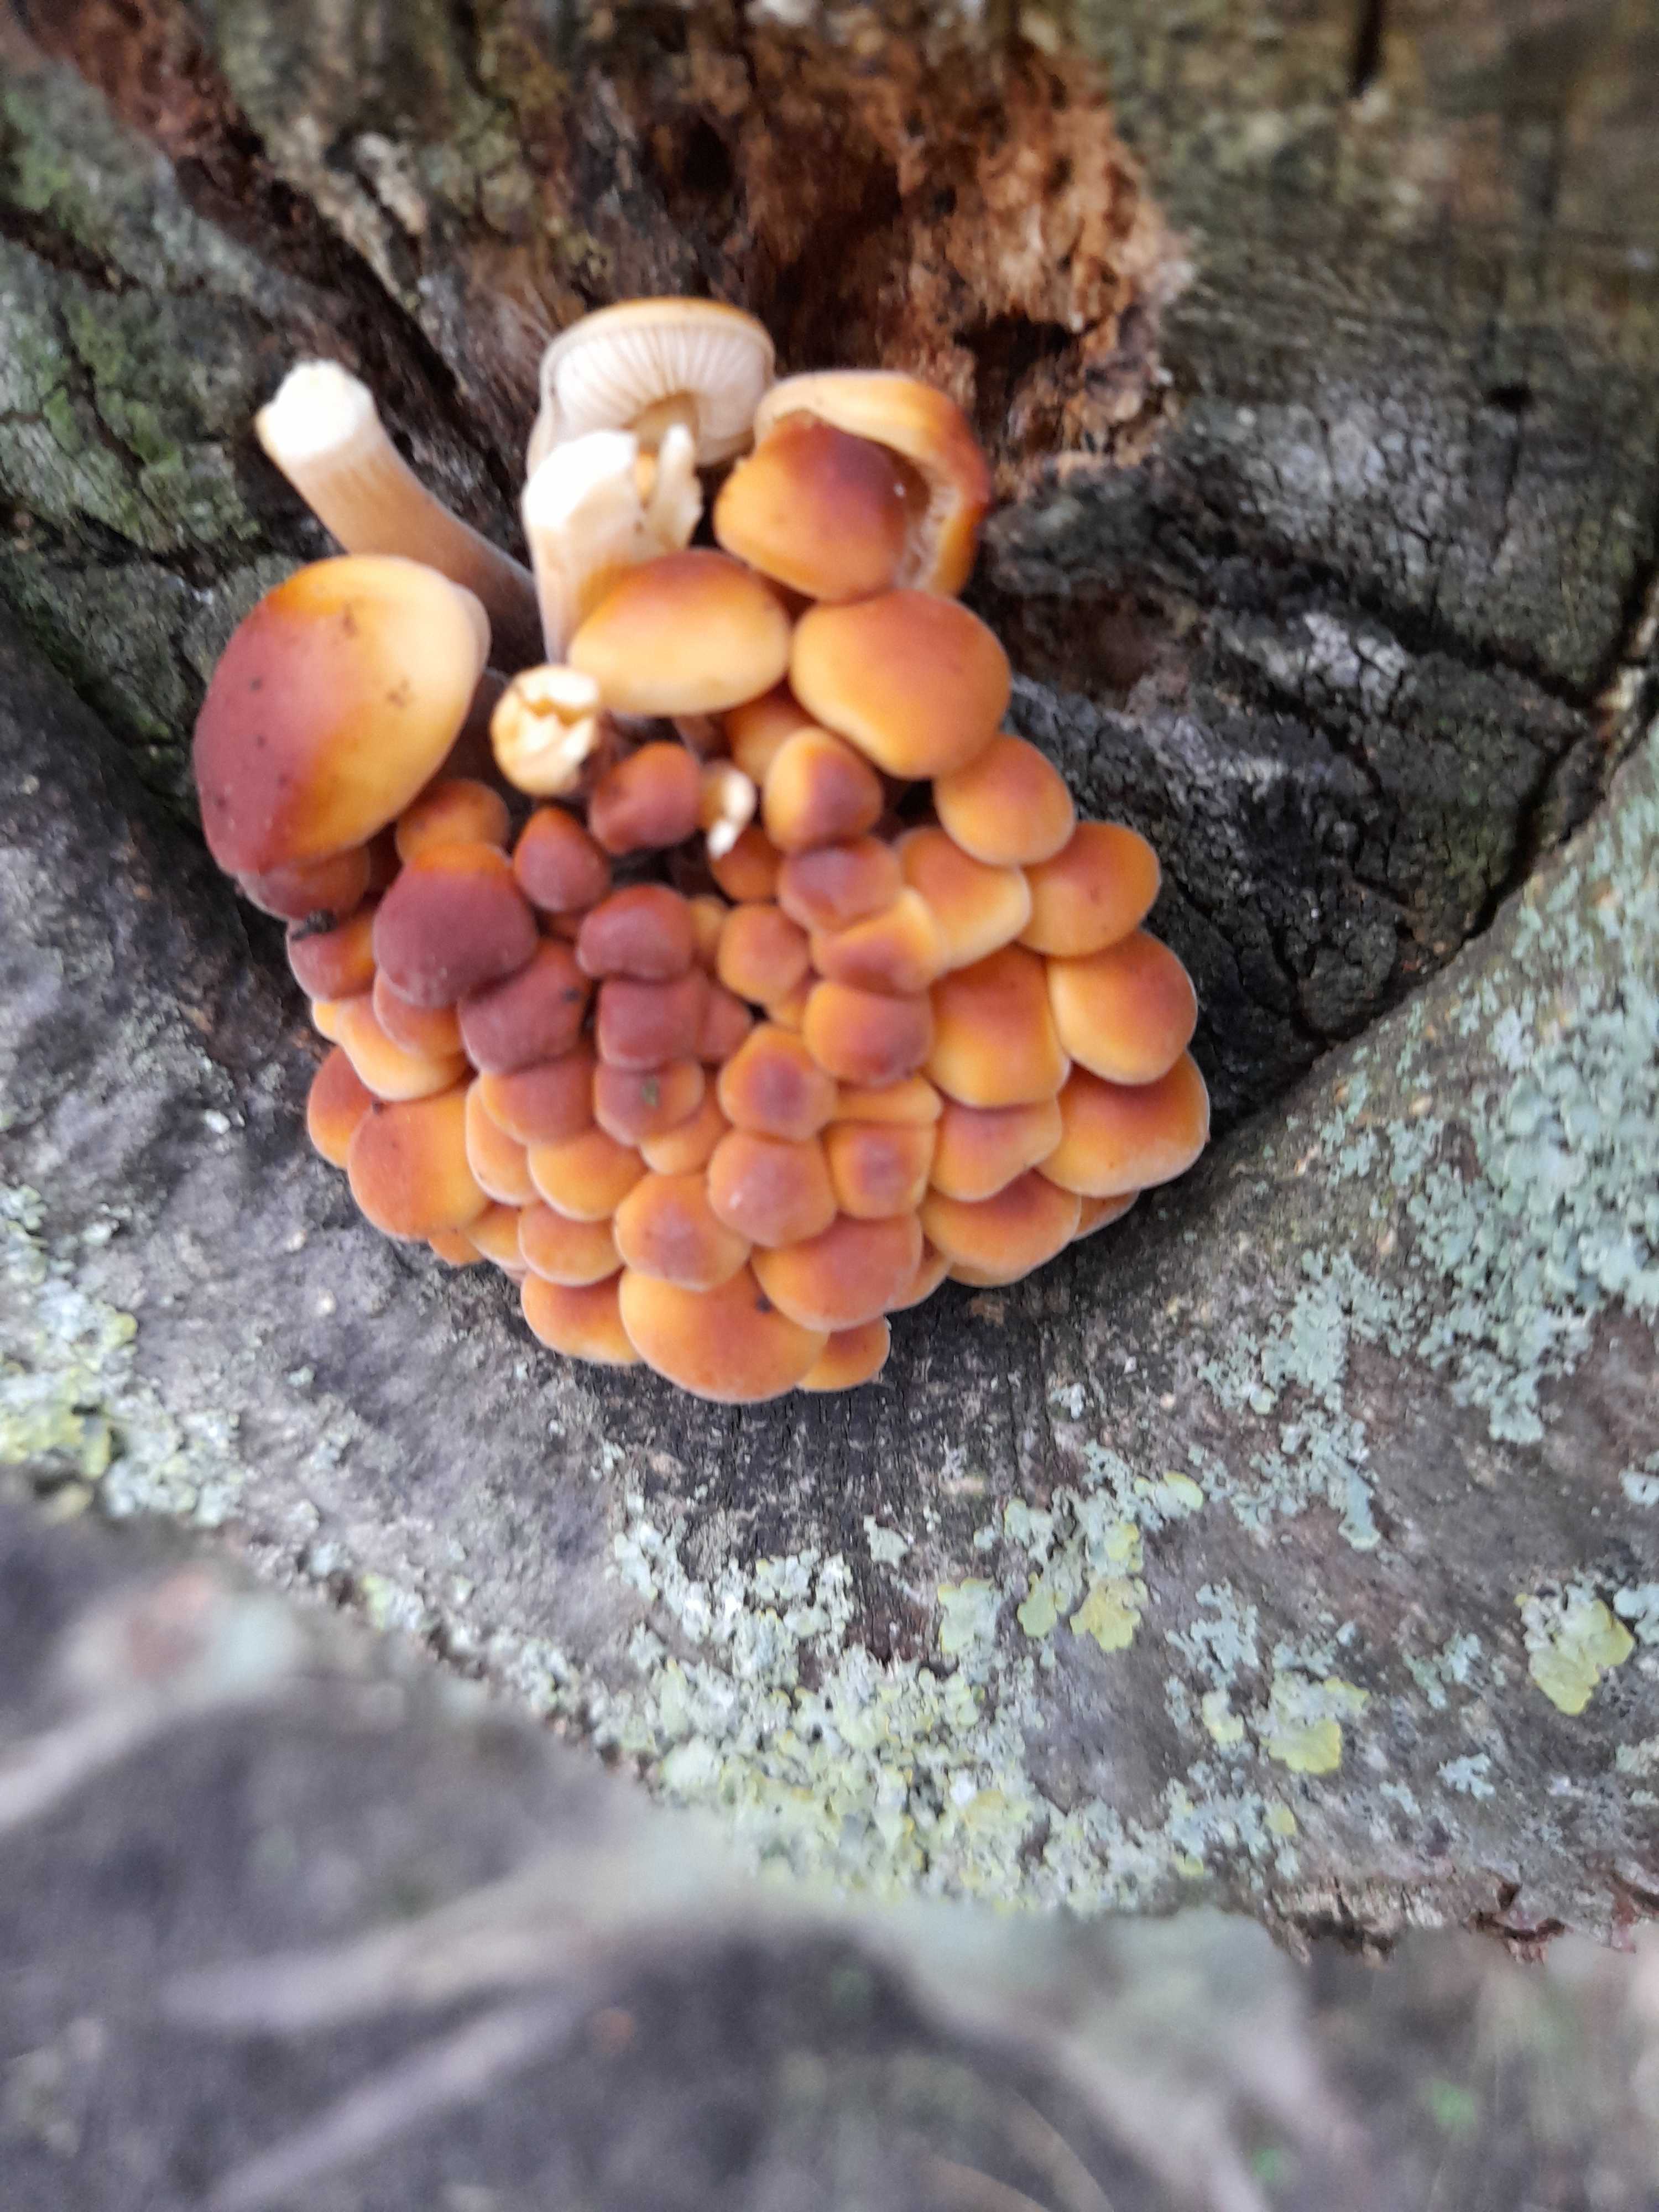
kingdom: Fungi
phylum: Basidiomycota
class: Agaricomycetes
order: Agaricales
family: Physalacriaceae
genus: Flammulina
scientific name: Flammulina velutipes
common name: gul fløjlsfod
